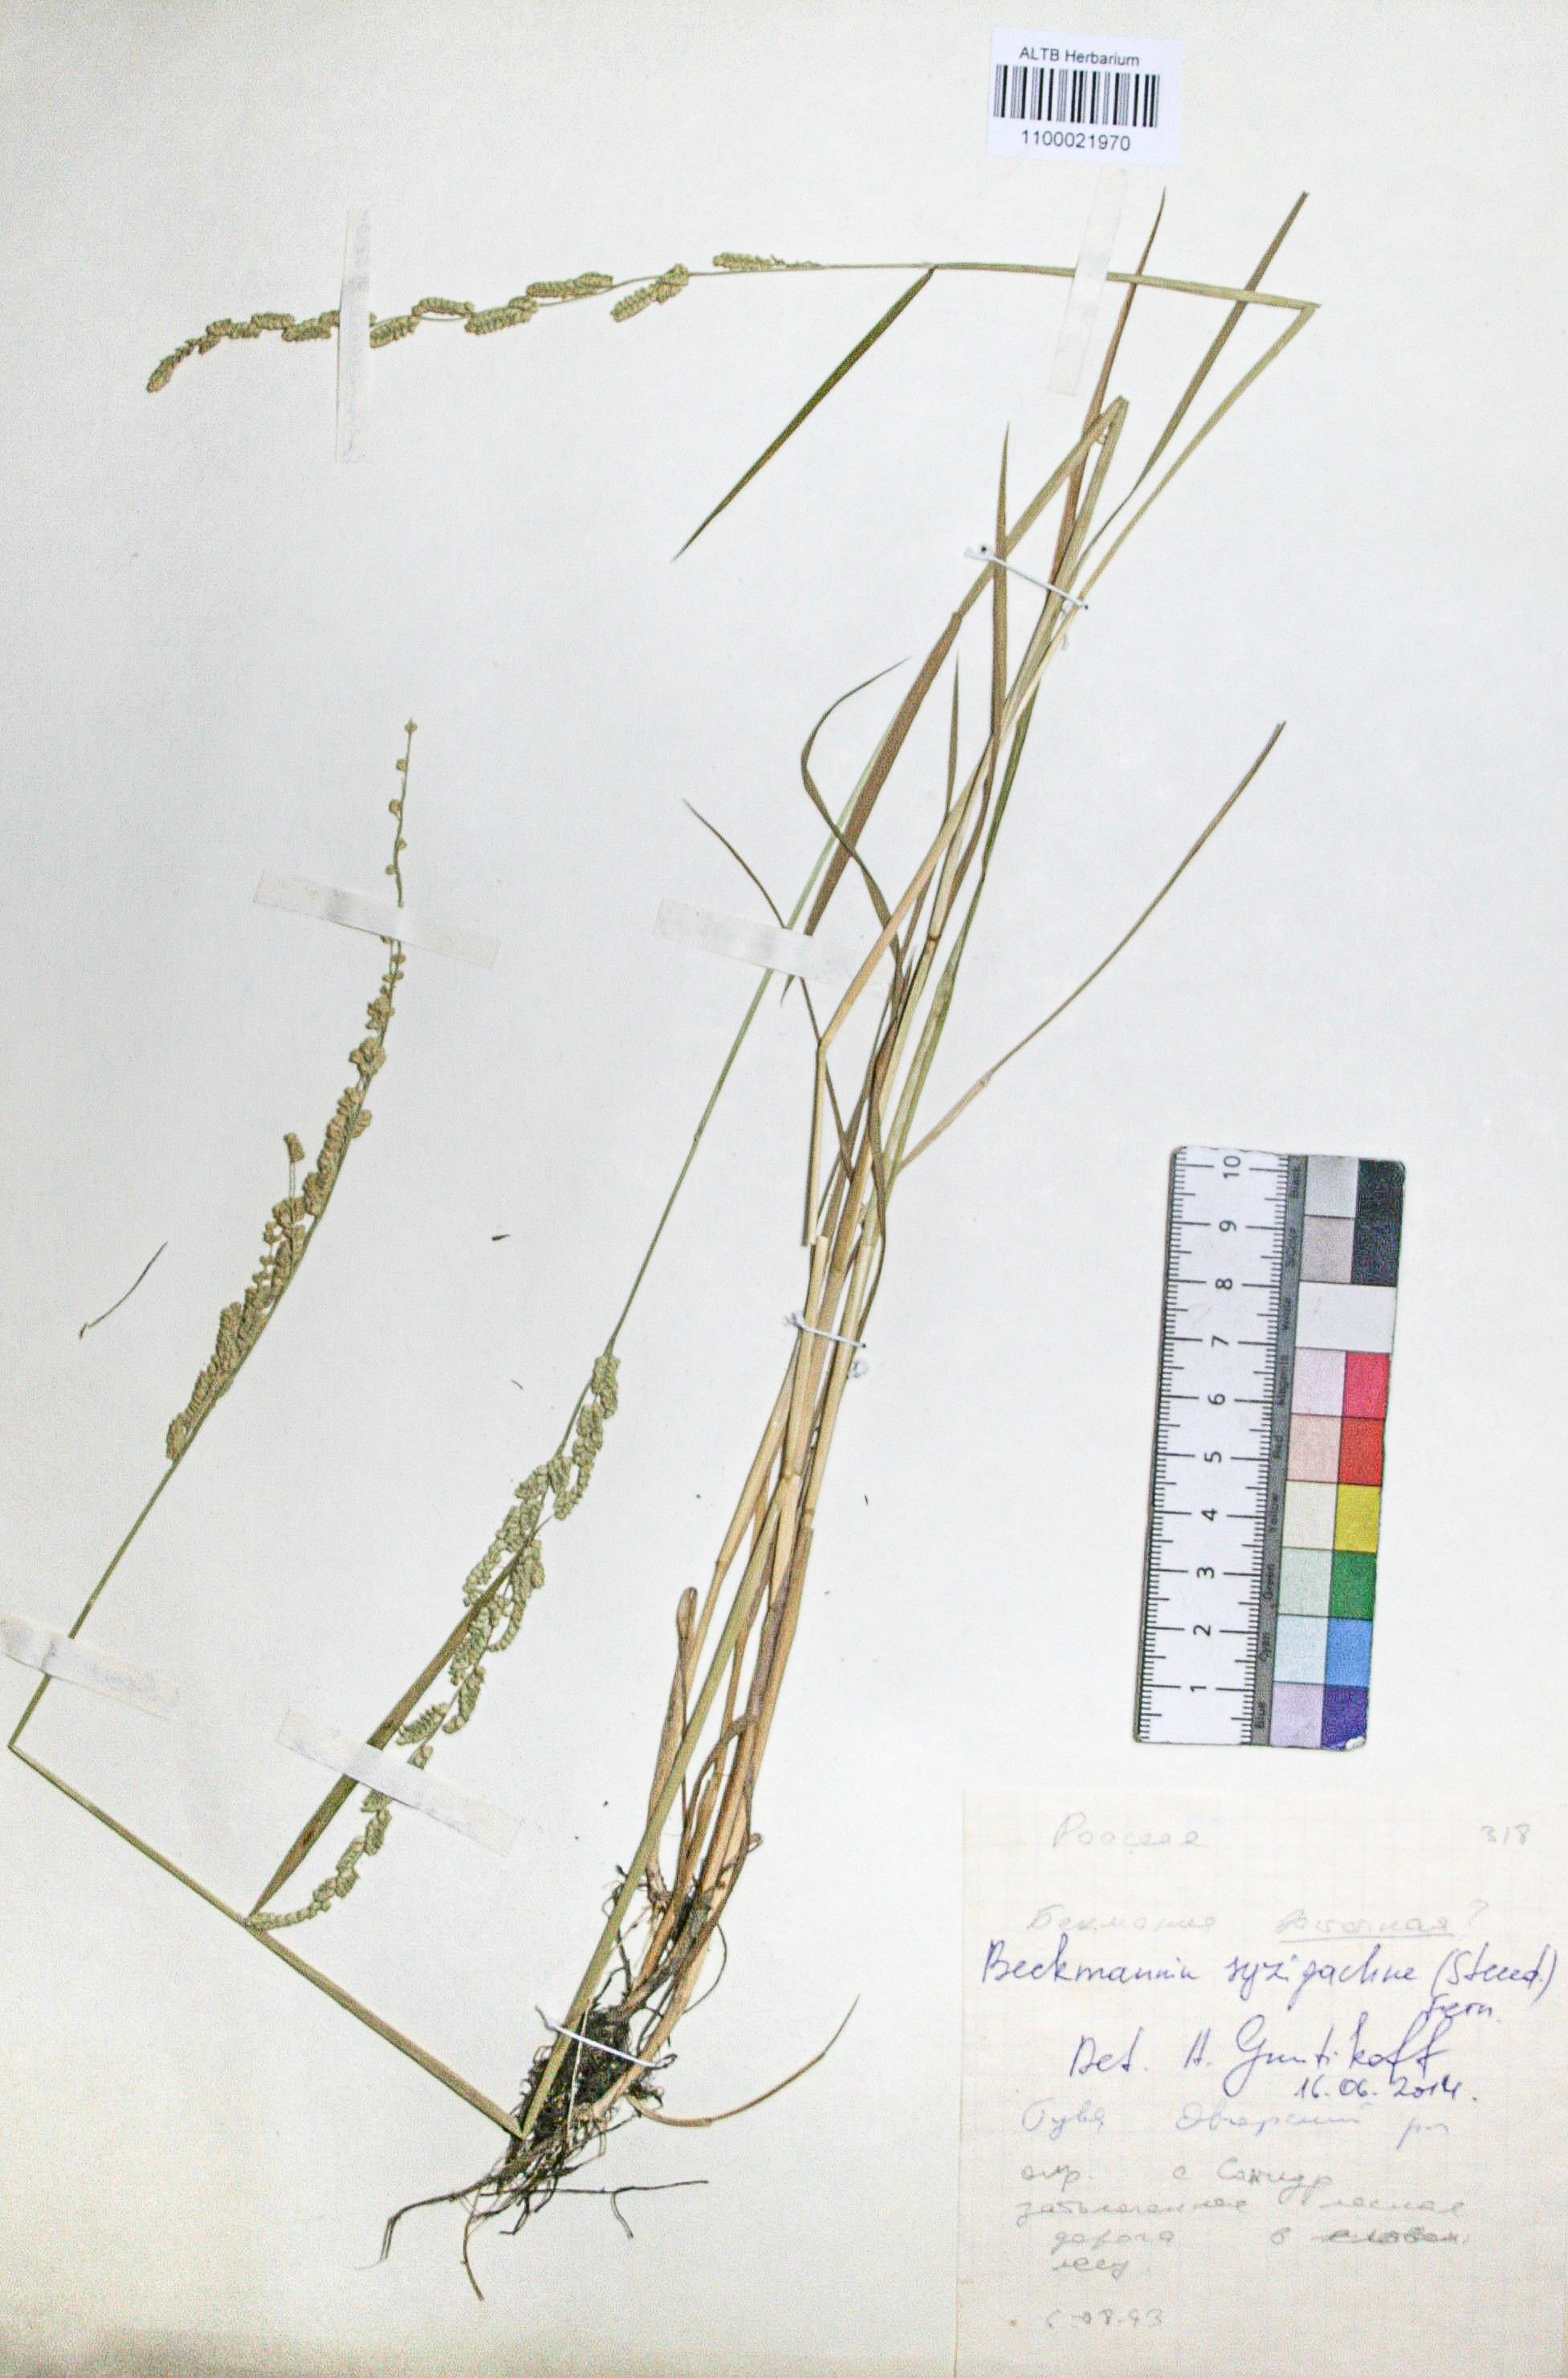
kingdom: Plantae
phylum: Tracheophyta
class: Liliopsida
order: Poales
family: Poaceae
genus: Beckmannia
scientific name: Beckmannia syzigachne
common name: American slough-grass
